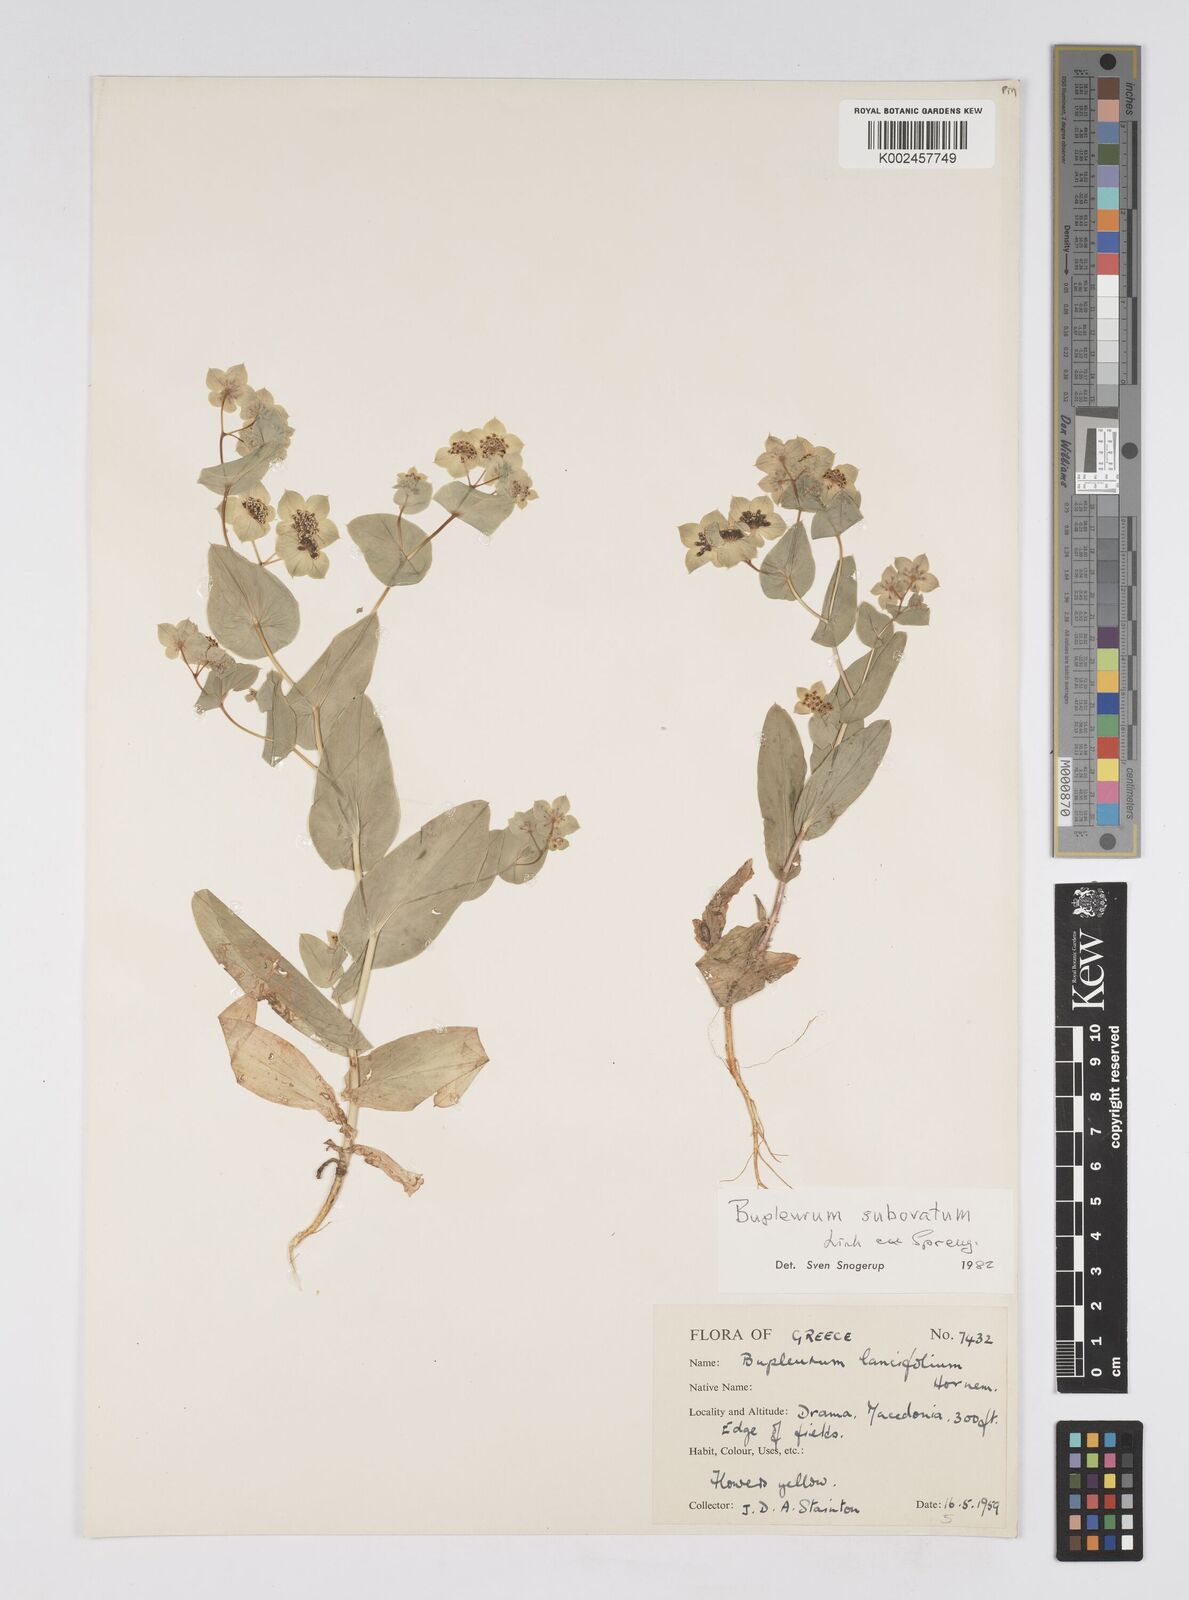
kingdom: Plantae
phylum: Tracheophyta
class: Magnoliopsida
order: Apiales
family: Apiaceae
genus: Bupleurum
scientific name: Bupleurum lancifolium
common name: False thorow-wax
